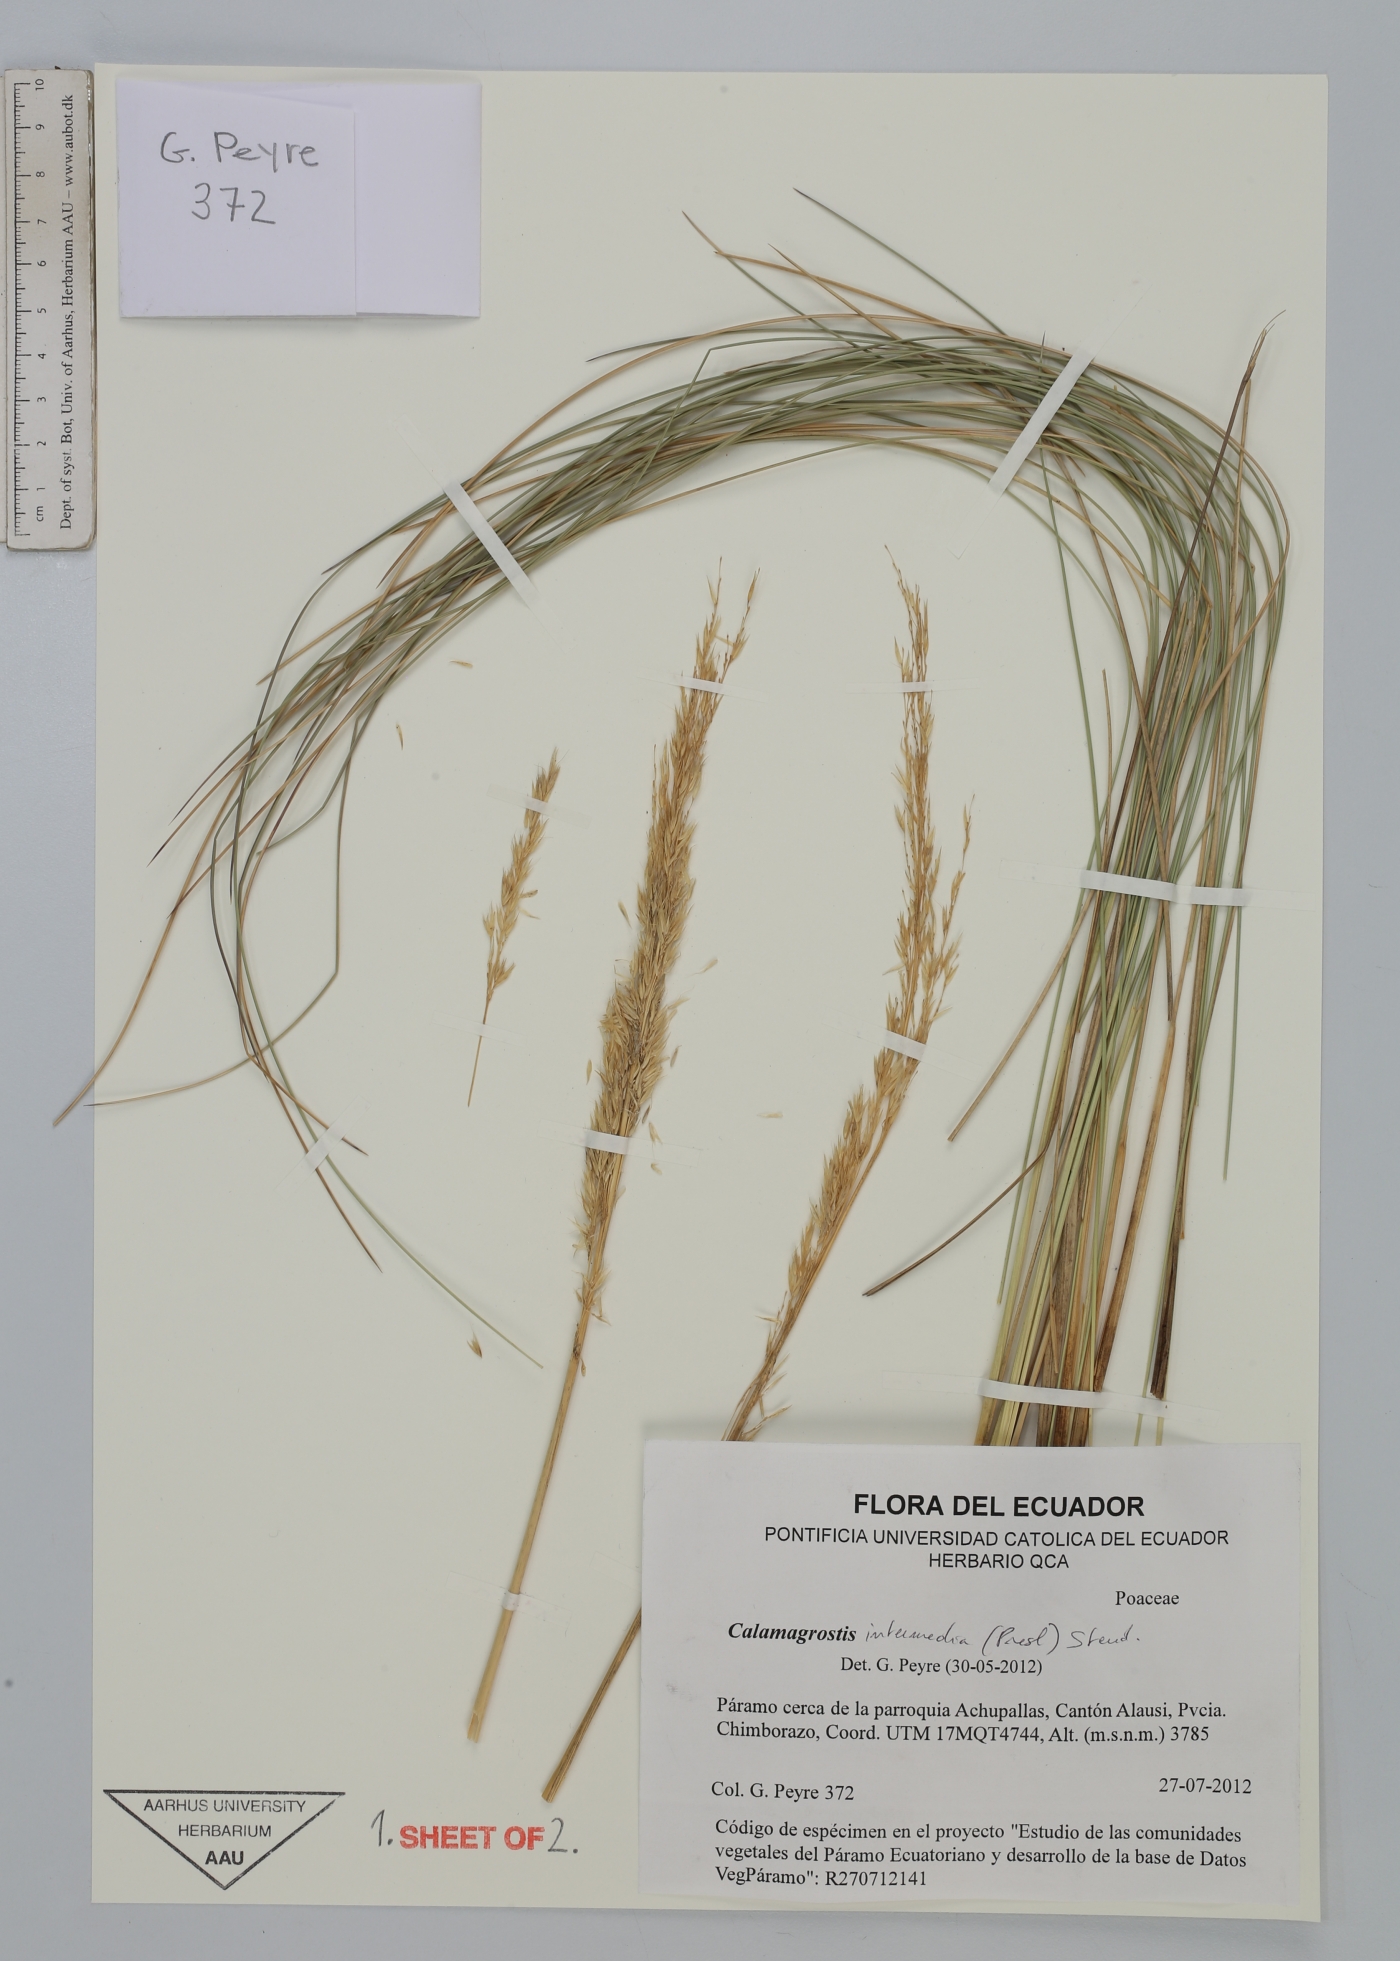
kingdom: Plantae
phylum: Tracheophyta
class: Liliopsida
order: Poales
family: Poaceae
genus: Cinnagrostis
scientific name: Cinnagrostis intermedia
